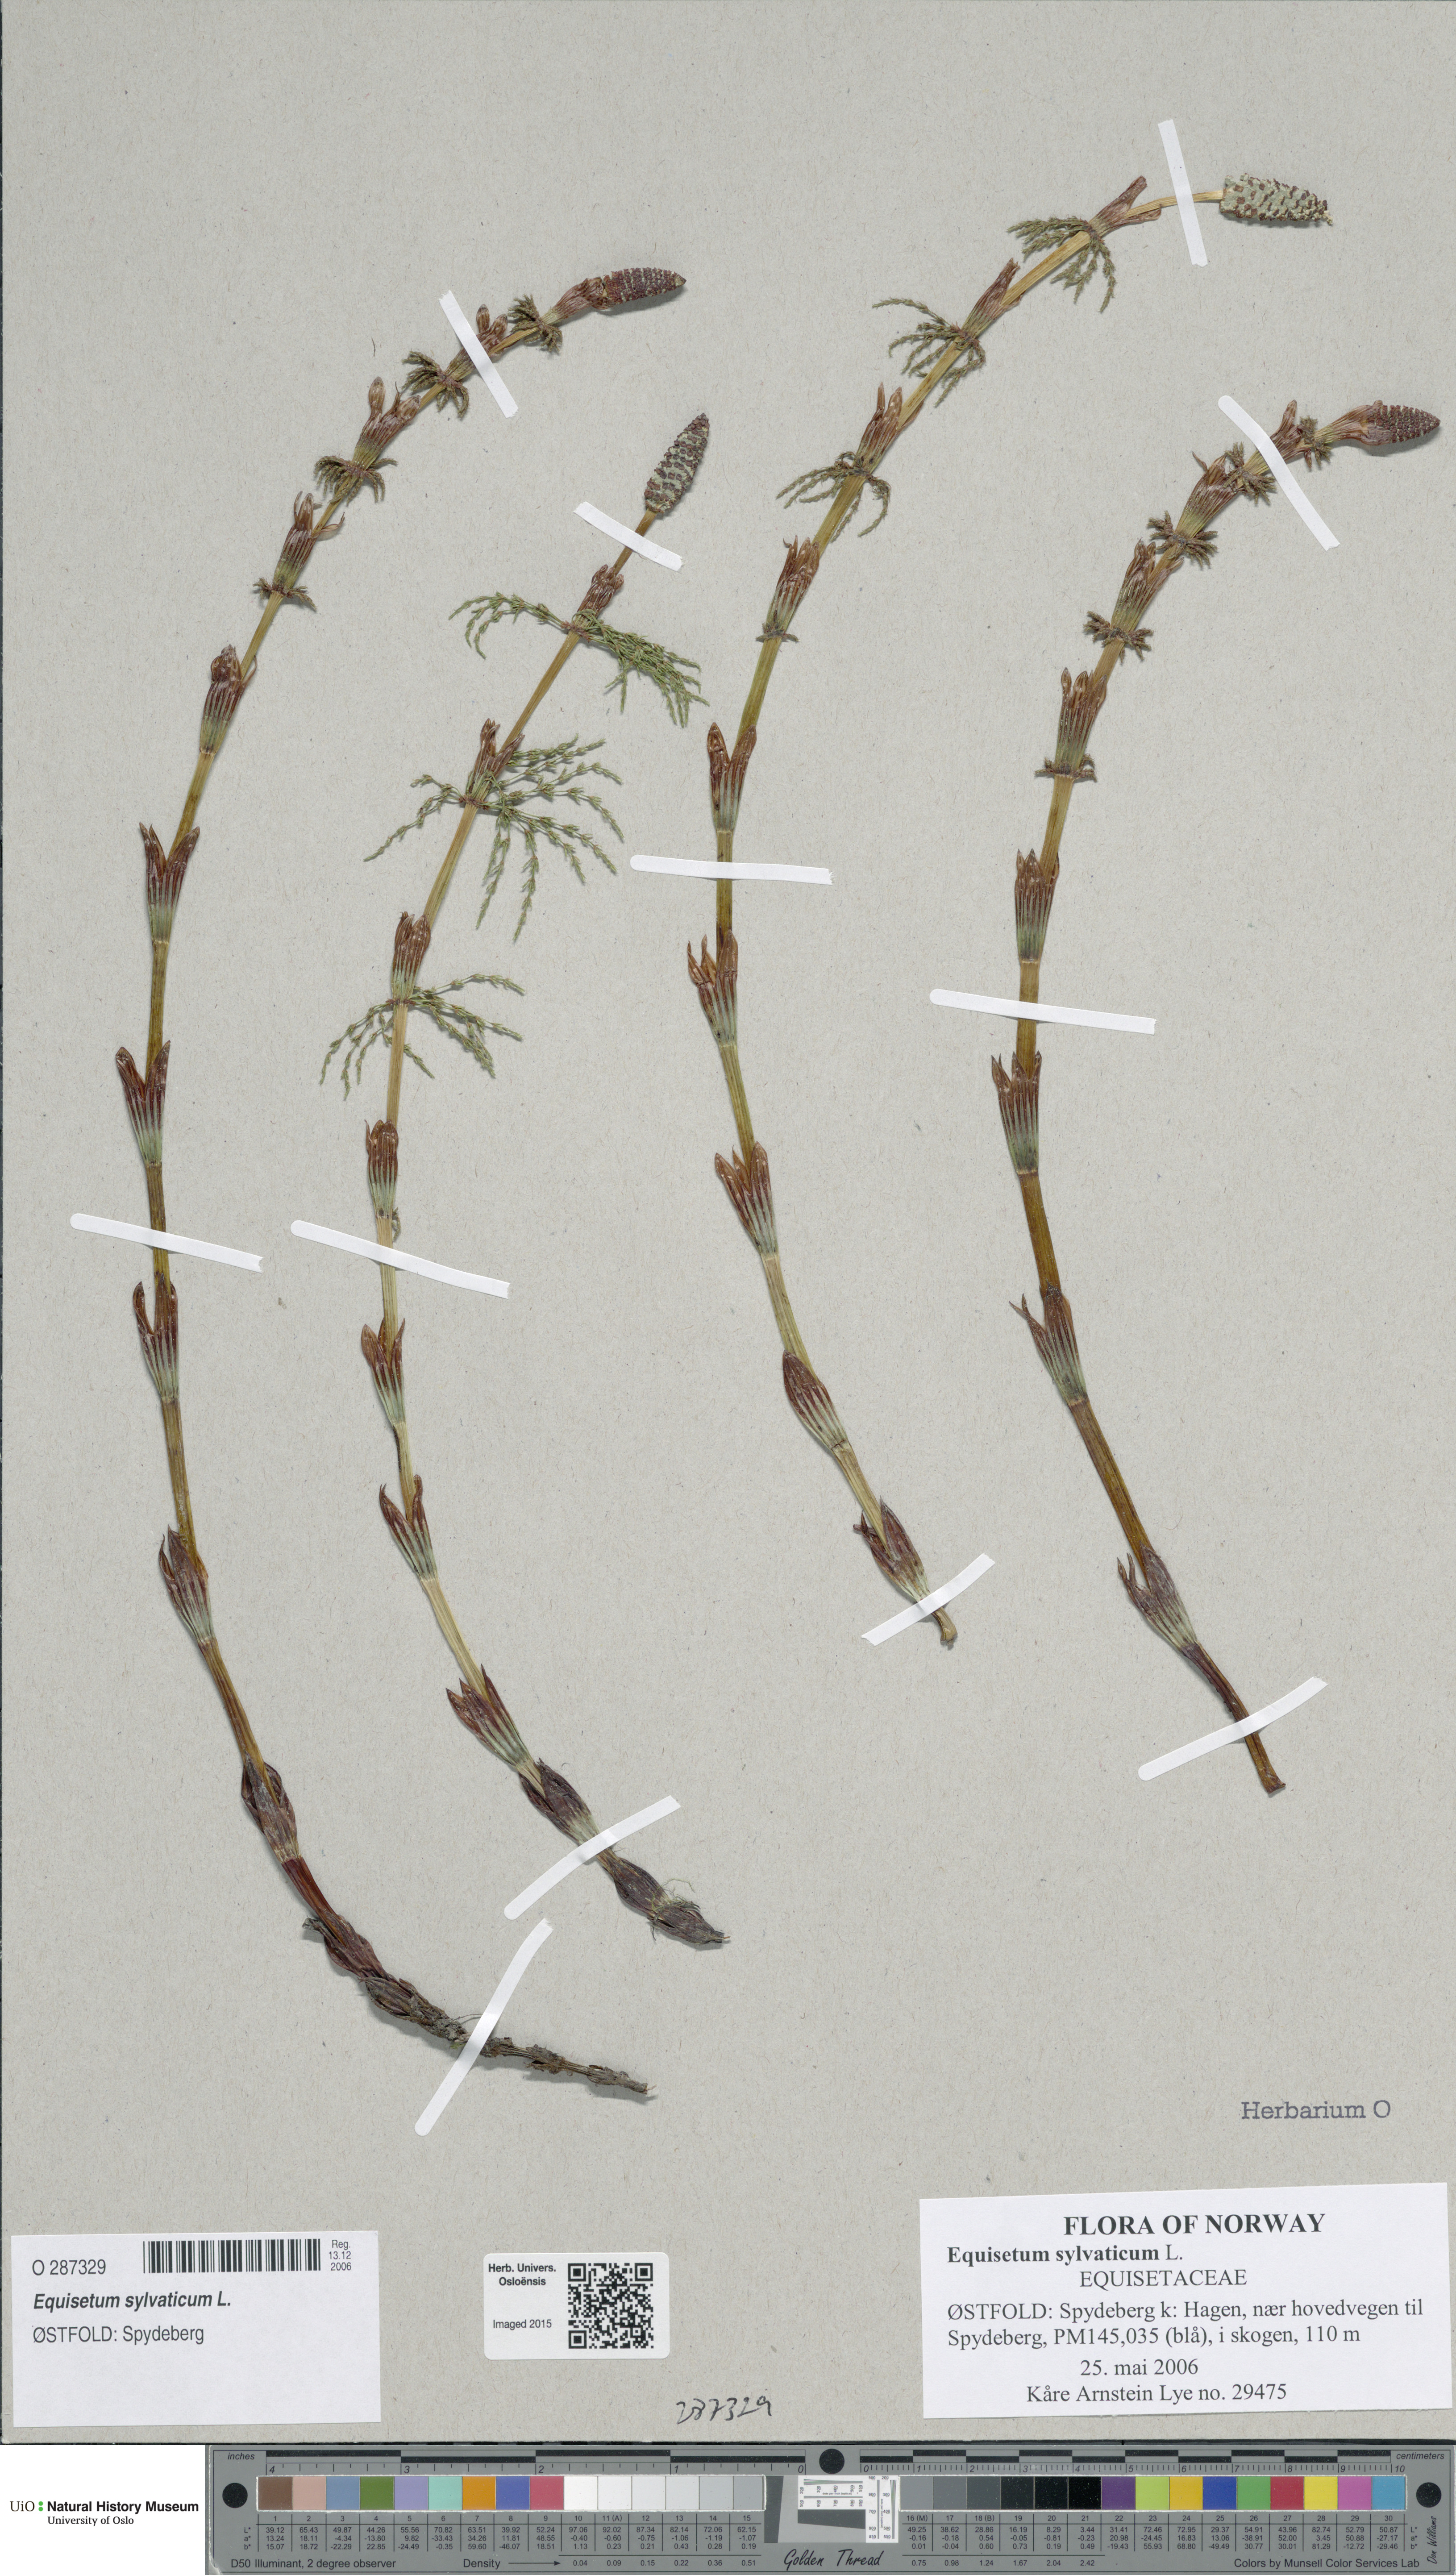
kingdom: Plantae
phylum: Tracheophyta
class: Polypodiopsida
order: Equisetales
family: Equisetaceae
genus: Equisetum
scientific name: Equisetum sylvaticum
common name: Wood horsetail
